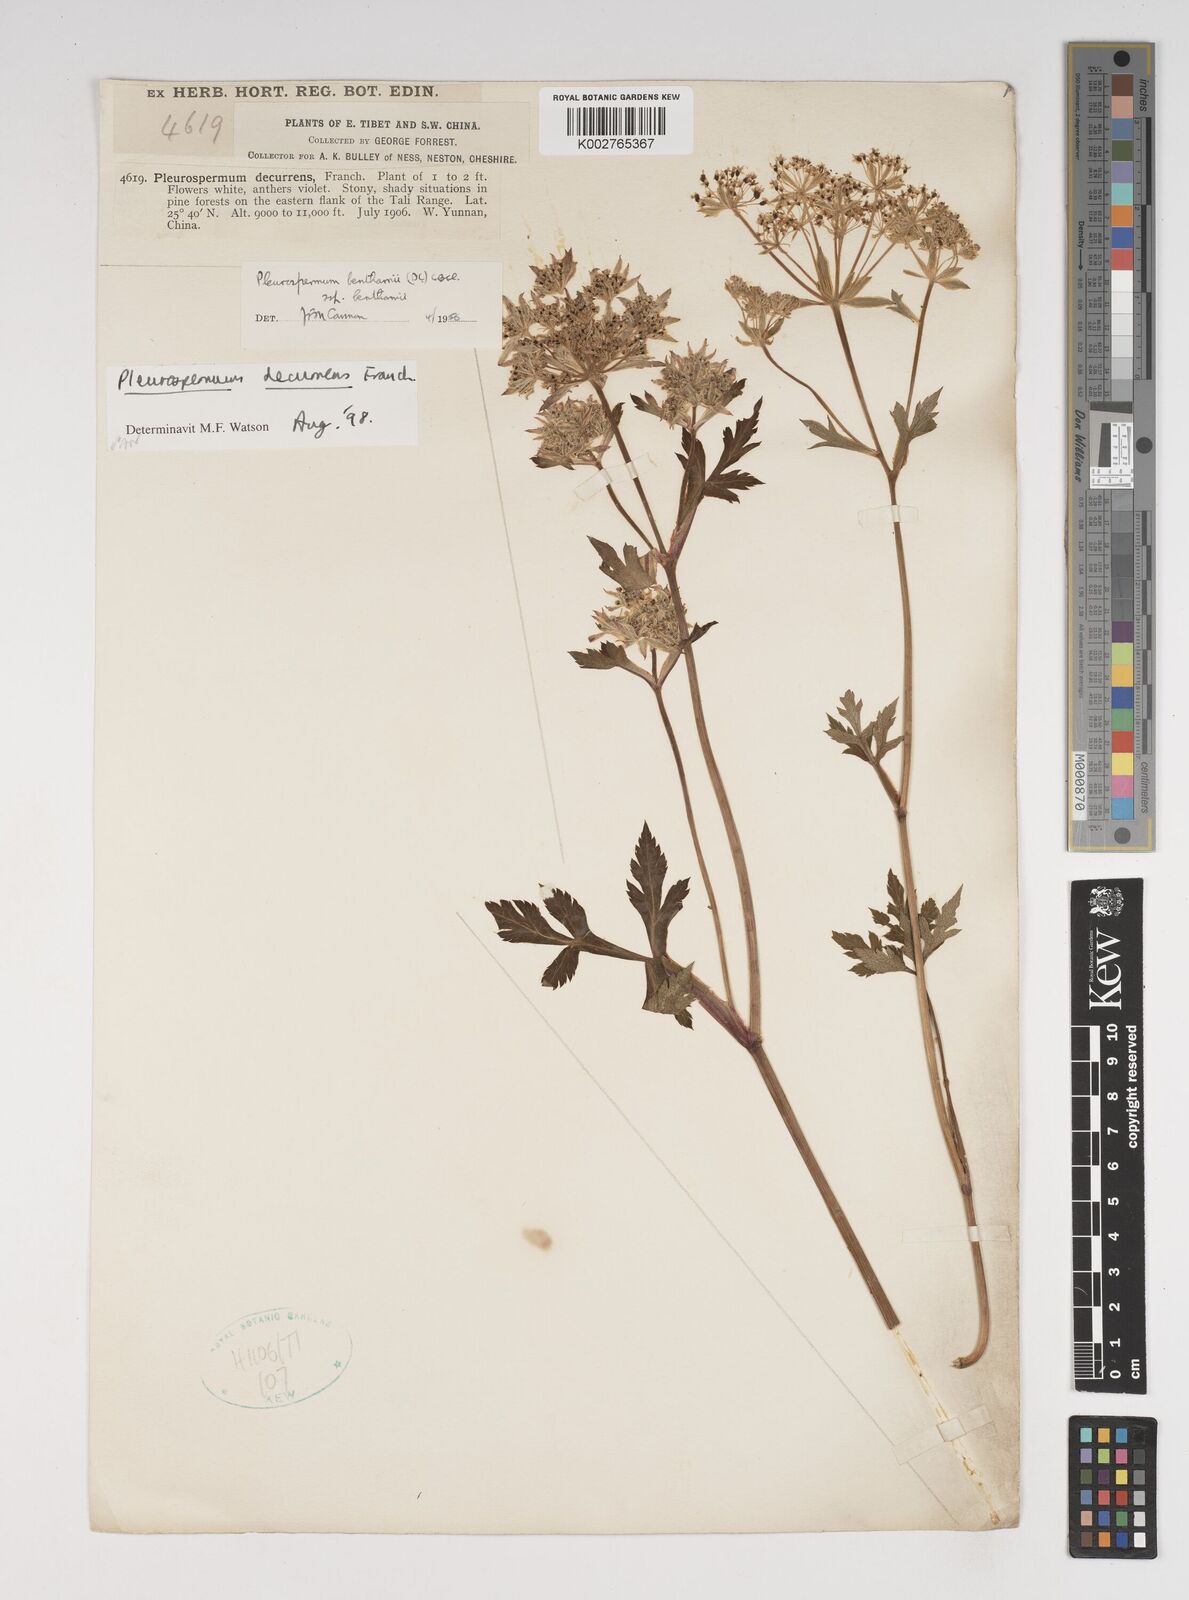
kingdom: Plantae
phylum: Tracheophyta
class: Magnoliopsida
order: Apiales
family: Apiaceae
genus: Hymenidium
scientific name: Hymenidium decurrens
